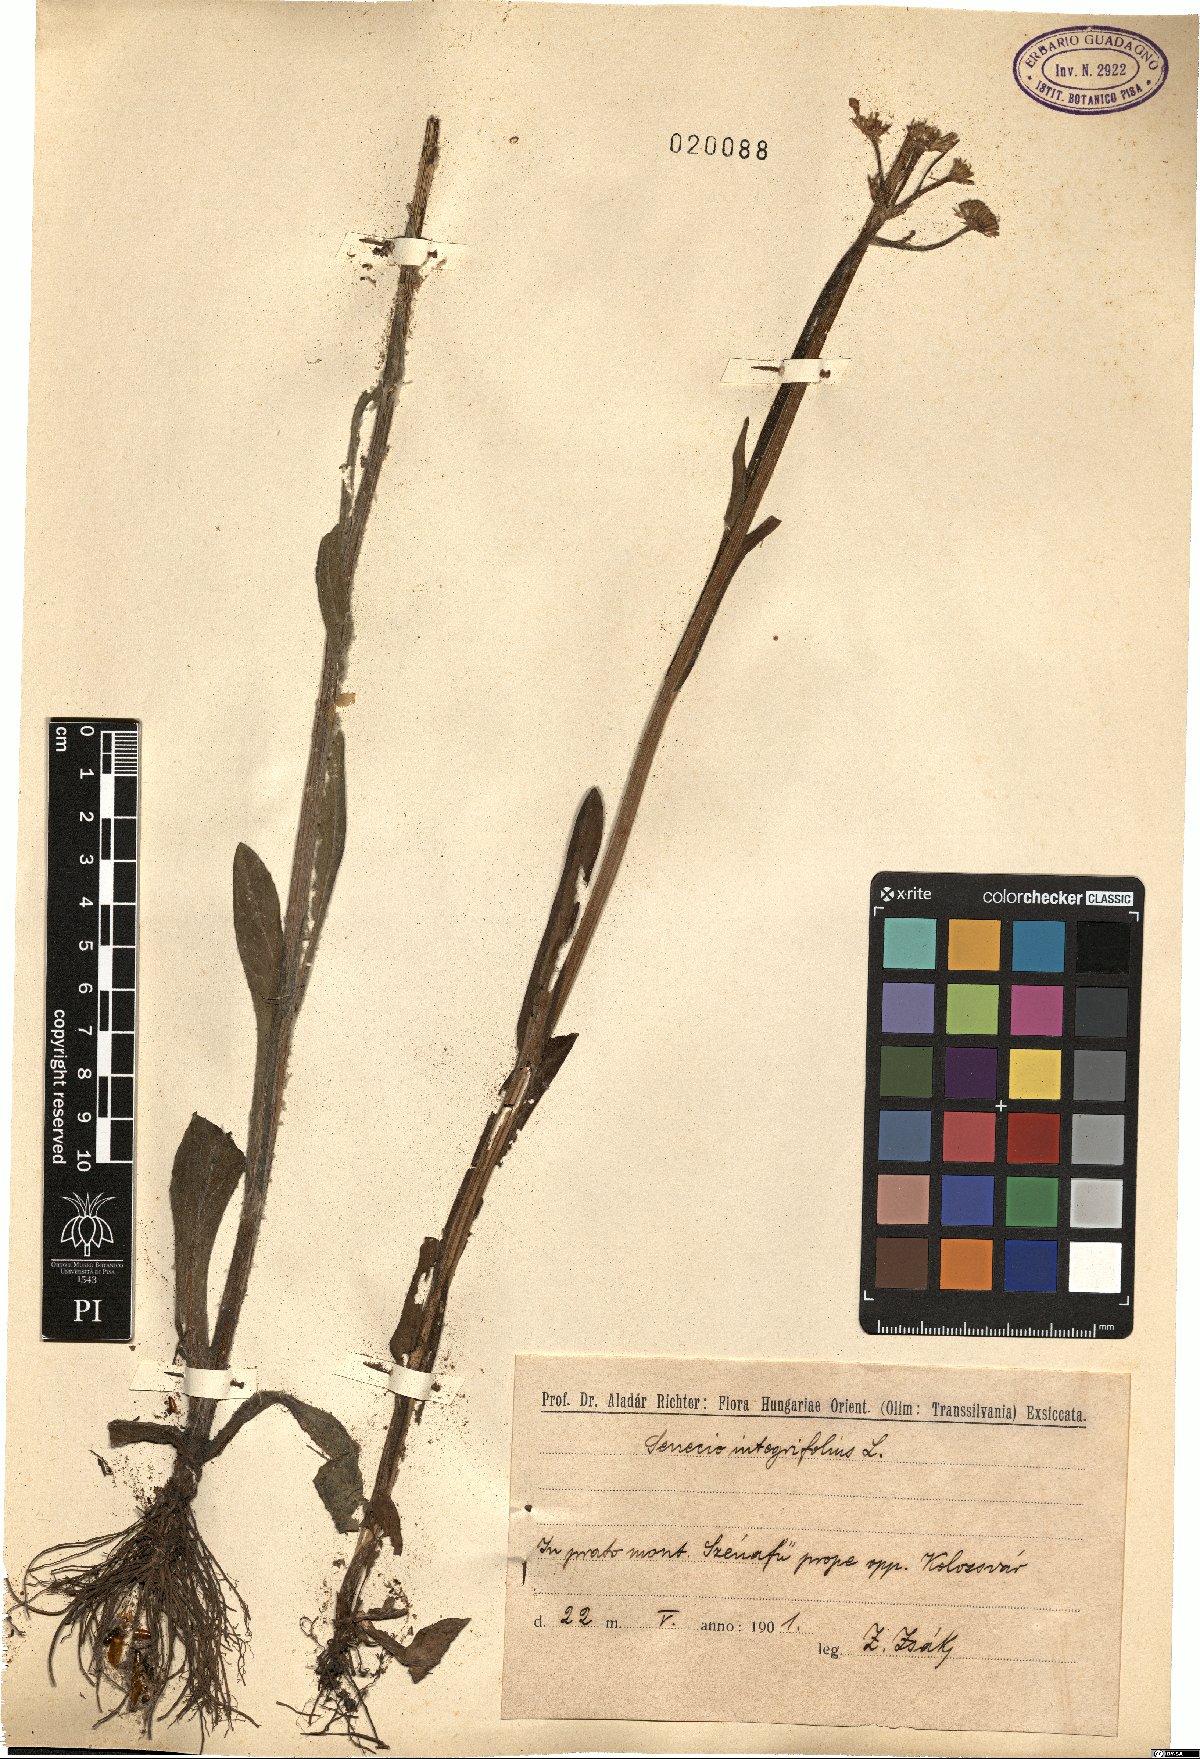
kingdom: Plantae
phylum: Tracheophyta
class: Magnoliopsida
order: Asterales
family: Asteraceae
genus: Tephroseris
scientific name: Tephroseris integrifolia
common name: Field fleawort
